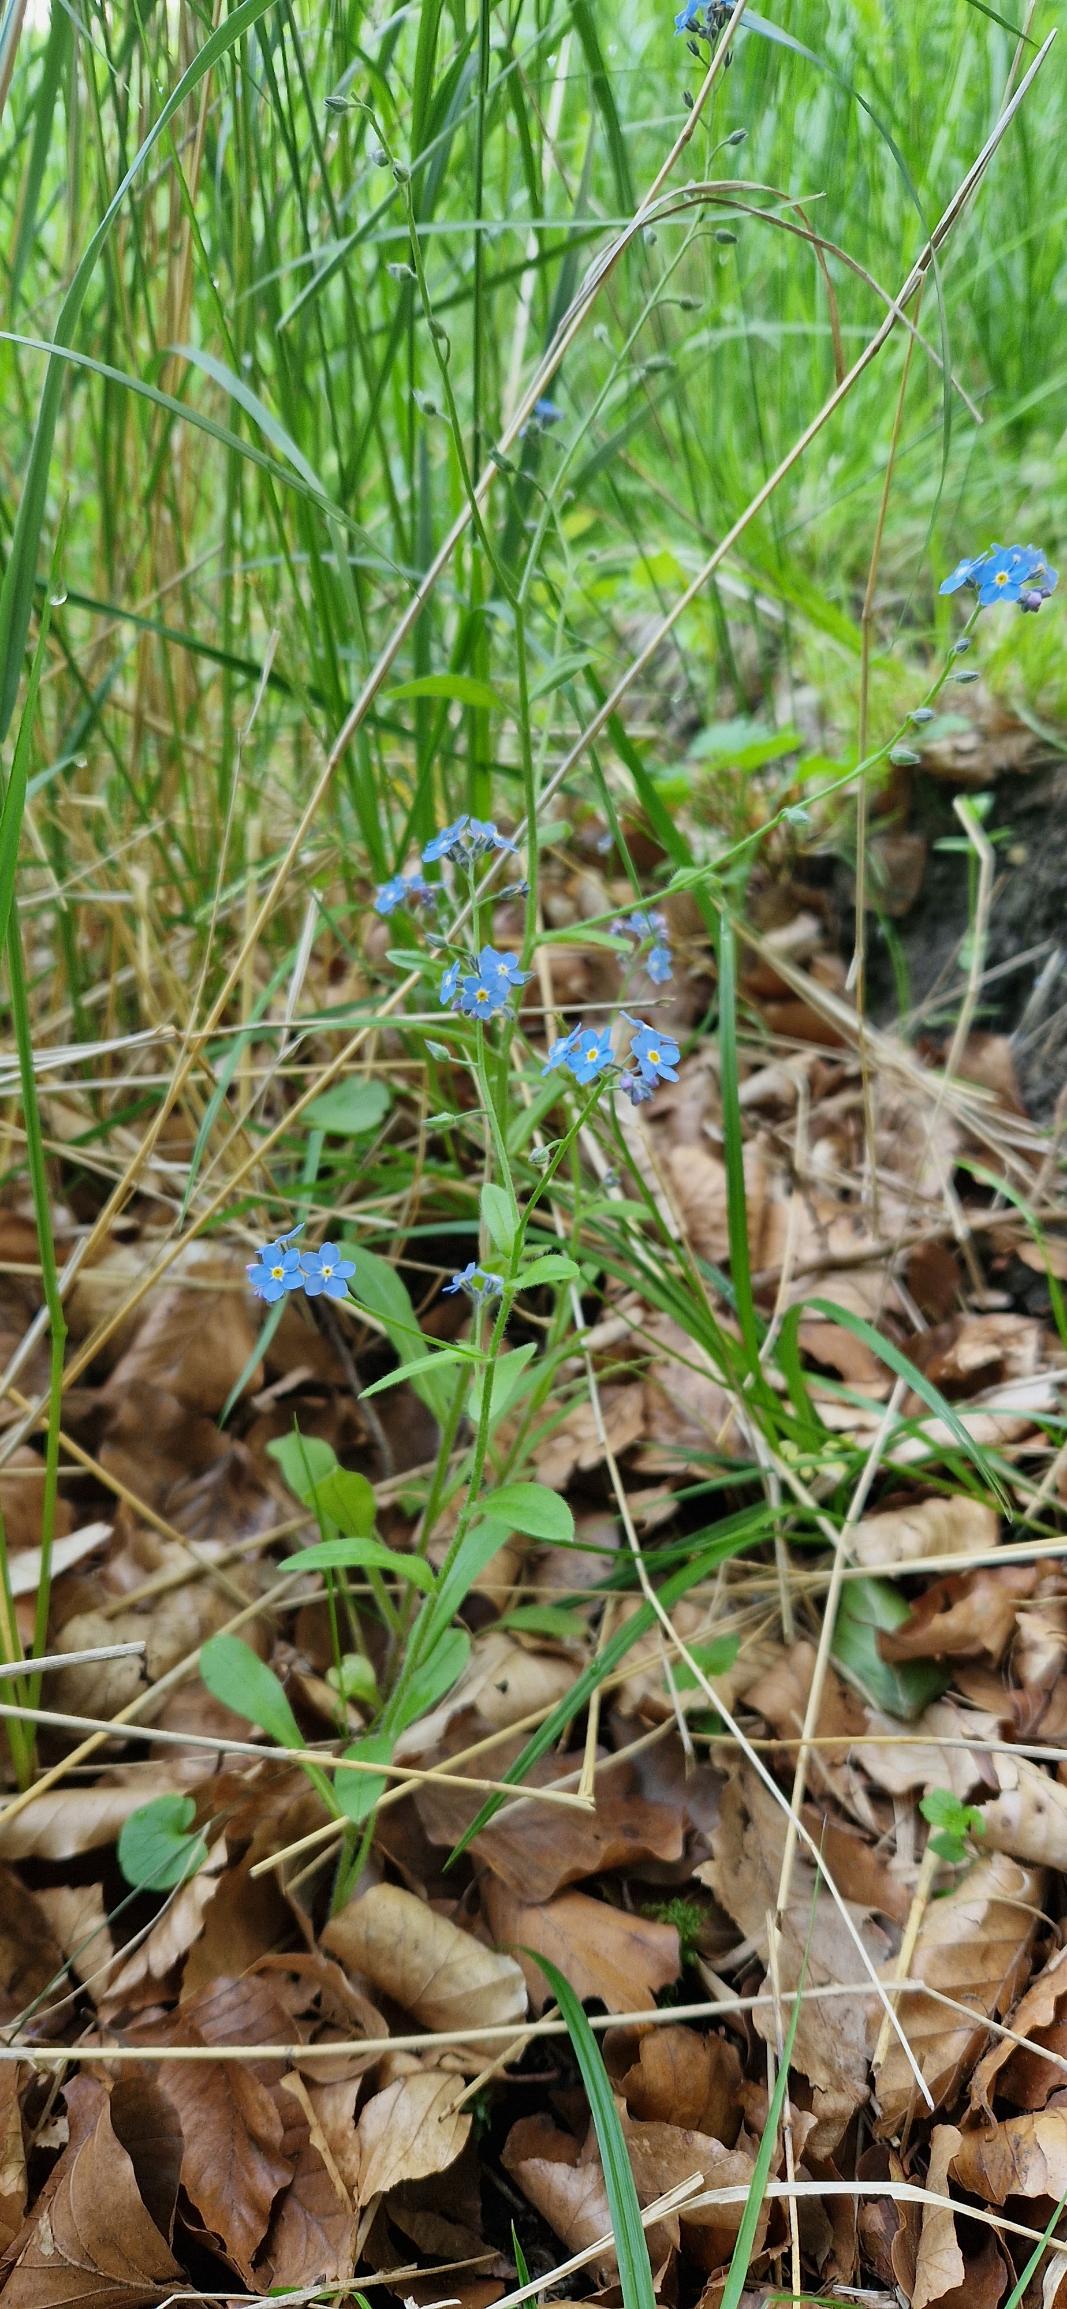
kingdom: Plantae
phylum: Tracheophyta
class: Magnoliopsida
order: Boraginales
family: Boraginaceae
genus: Myosotis
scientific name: Myosotis sylvatica
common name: Skov-forglemmigej
